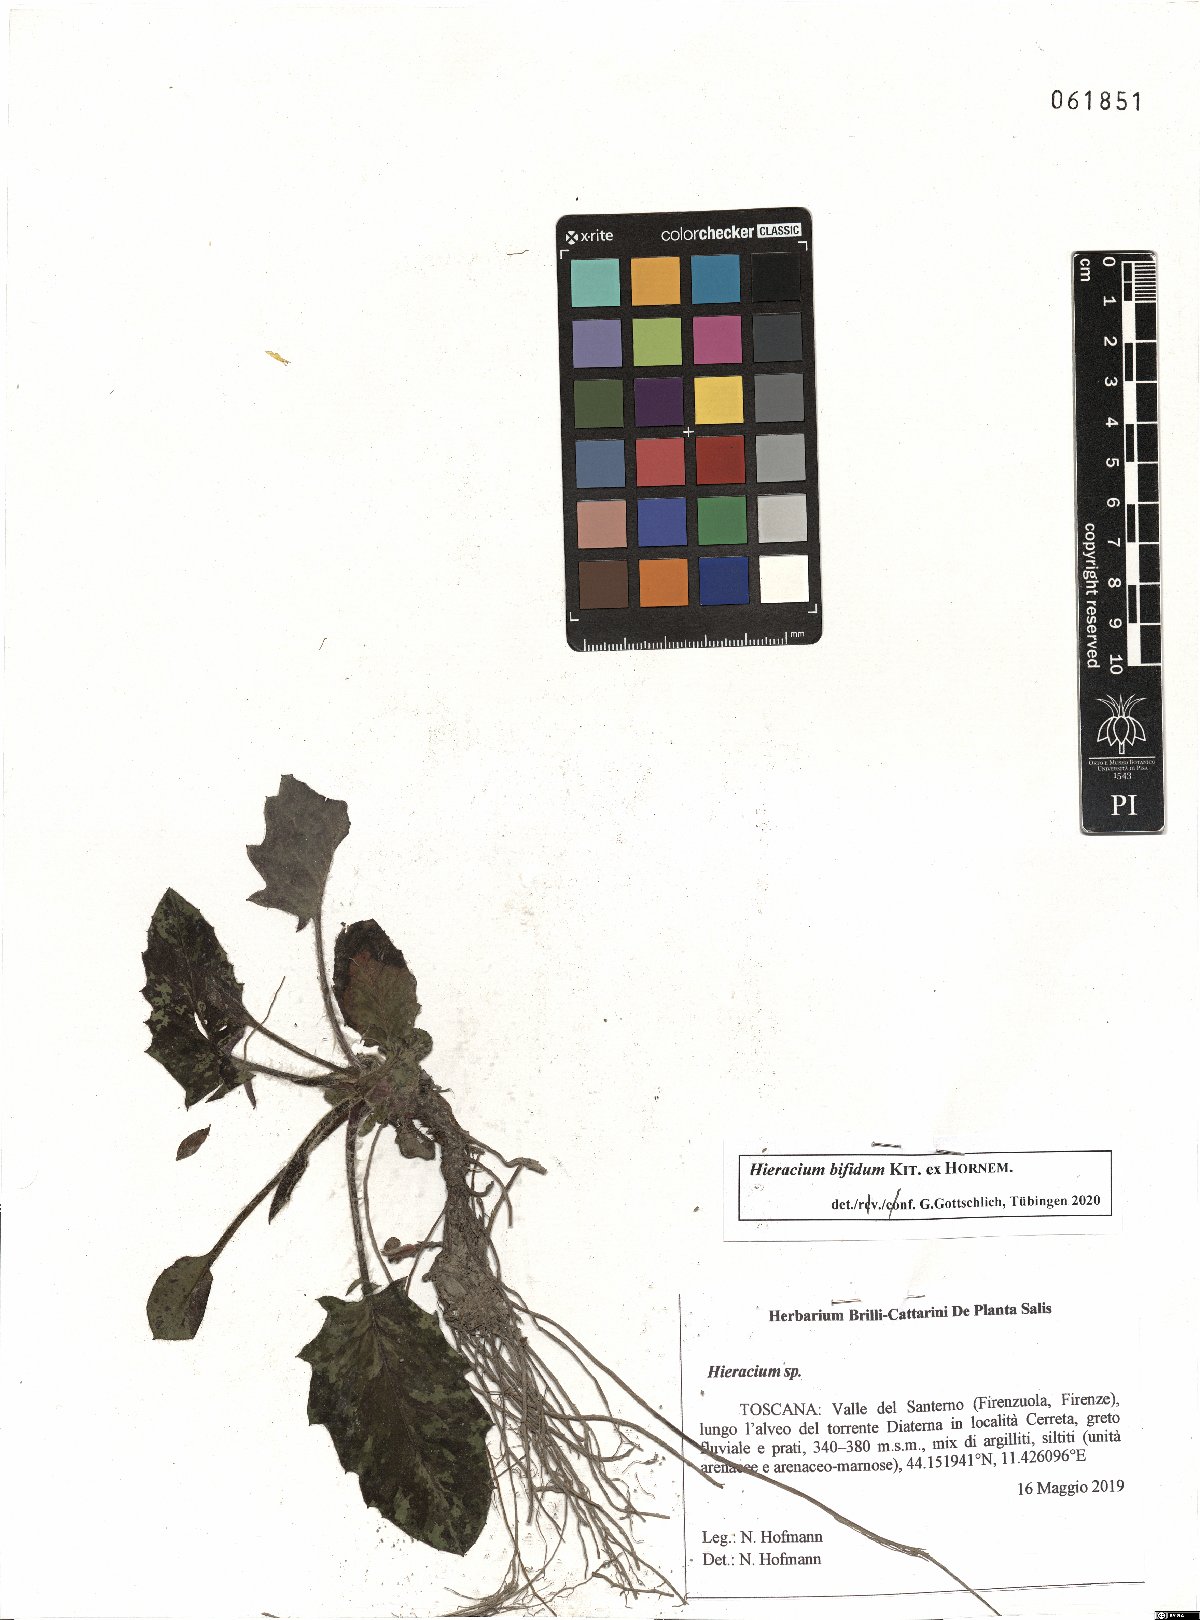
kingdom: Plantae
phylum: Tracheophyta
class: Magnoliopsida
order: Asterales
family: Asteraceae
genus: Hieracium
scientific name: Hieracium bifidum
